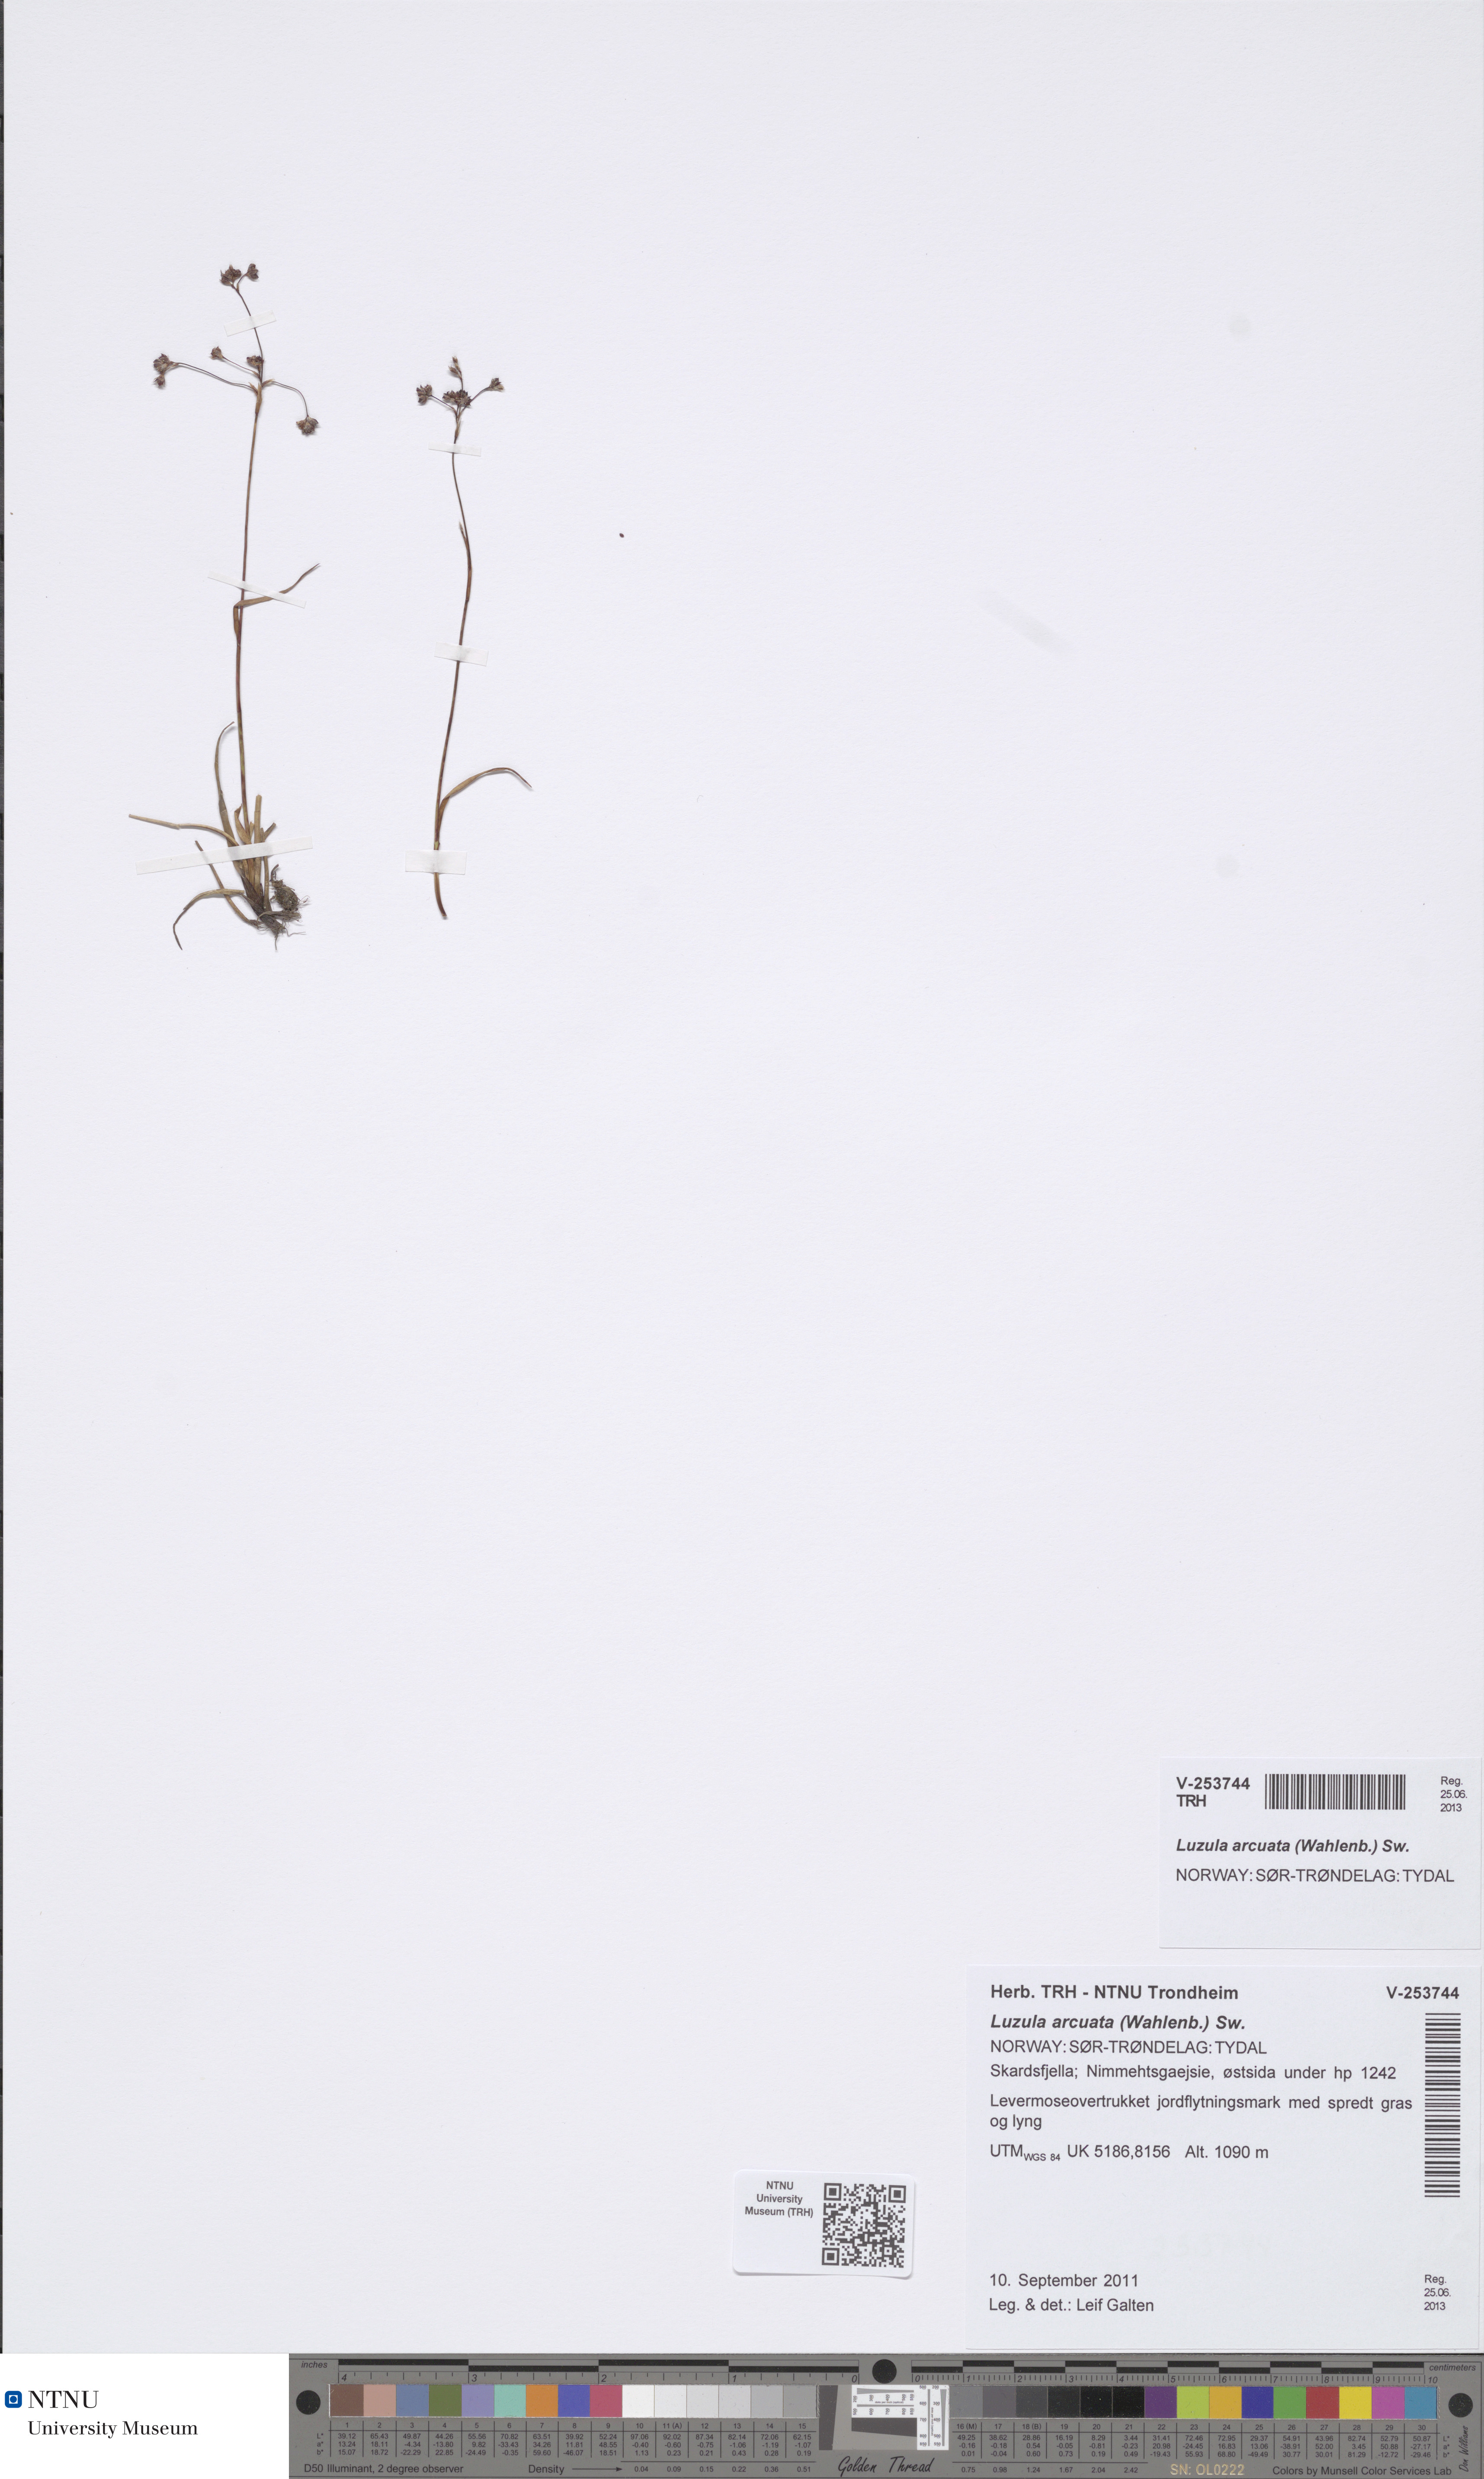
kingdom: Plantae
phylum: Tracheophyta
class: Liliopsida
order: Poales
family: Juncaceae
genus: Luzula
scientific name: Luzula arcuata
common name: Curved wood-rush
